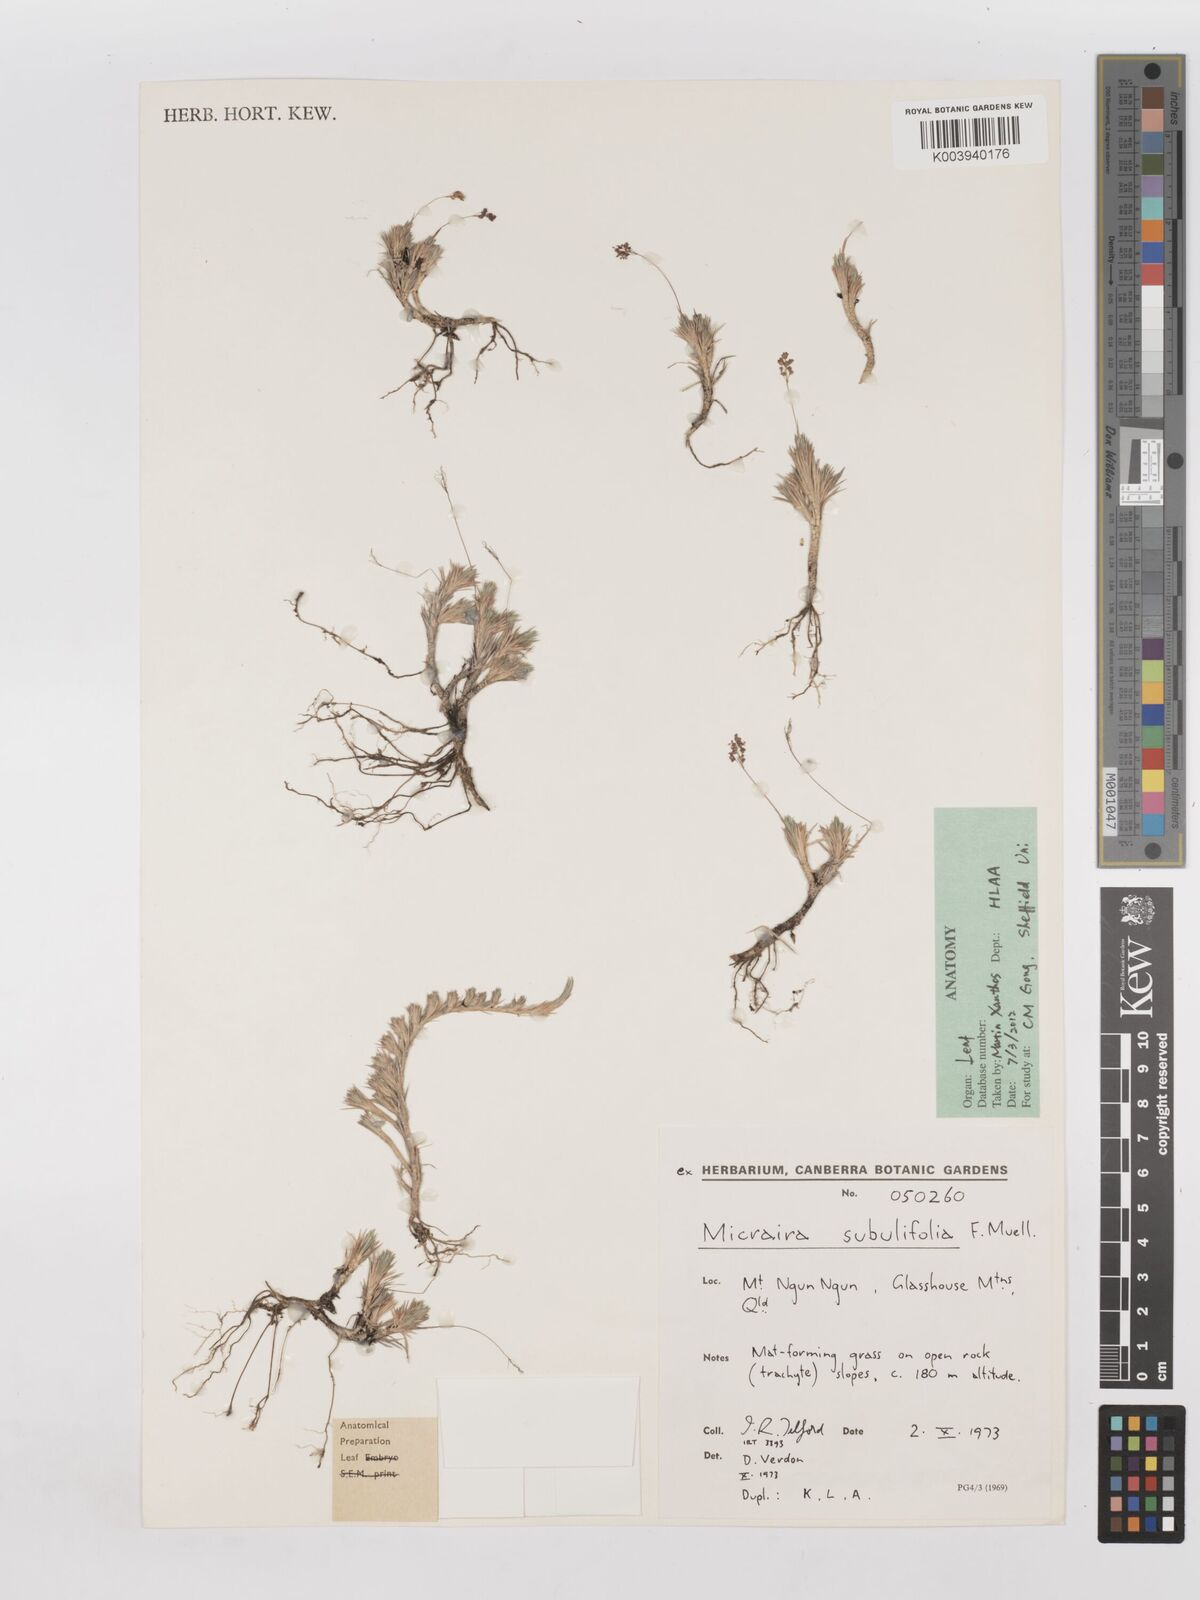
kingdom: Plantae
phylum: Tracheophyta
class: Liliopsida
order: Poales
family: Poaceae
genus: Micraira
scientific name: Micraira subulifolia
